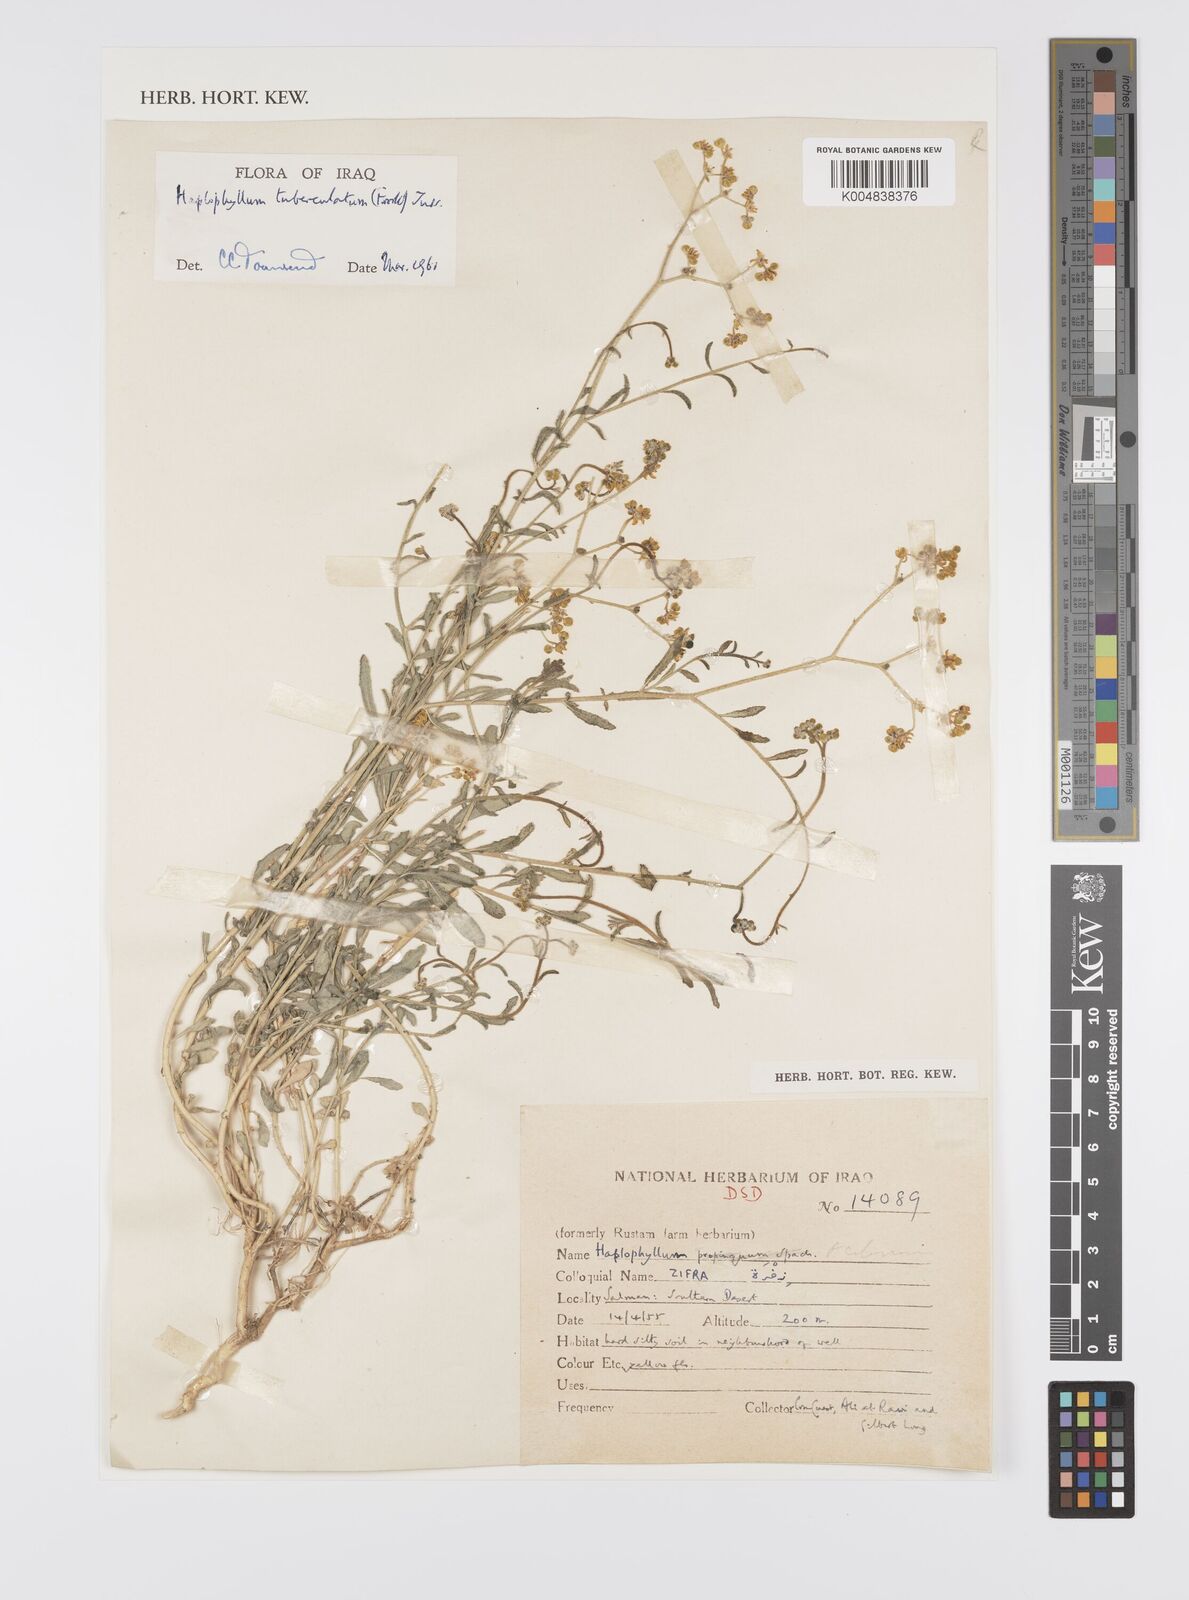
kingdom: Plantae
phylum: Tracheophyta
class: Magnoliopsida
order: Sapindales
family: Rutaceae
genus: Haplophyllum
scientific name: Haplophyllum tuberculatum
